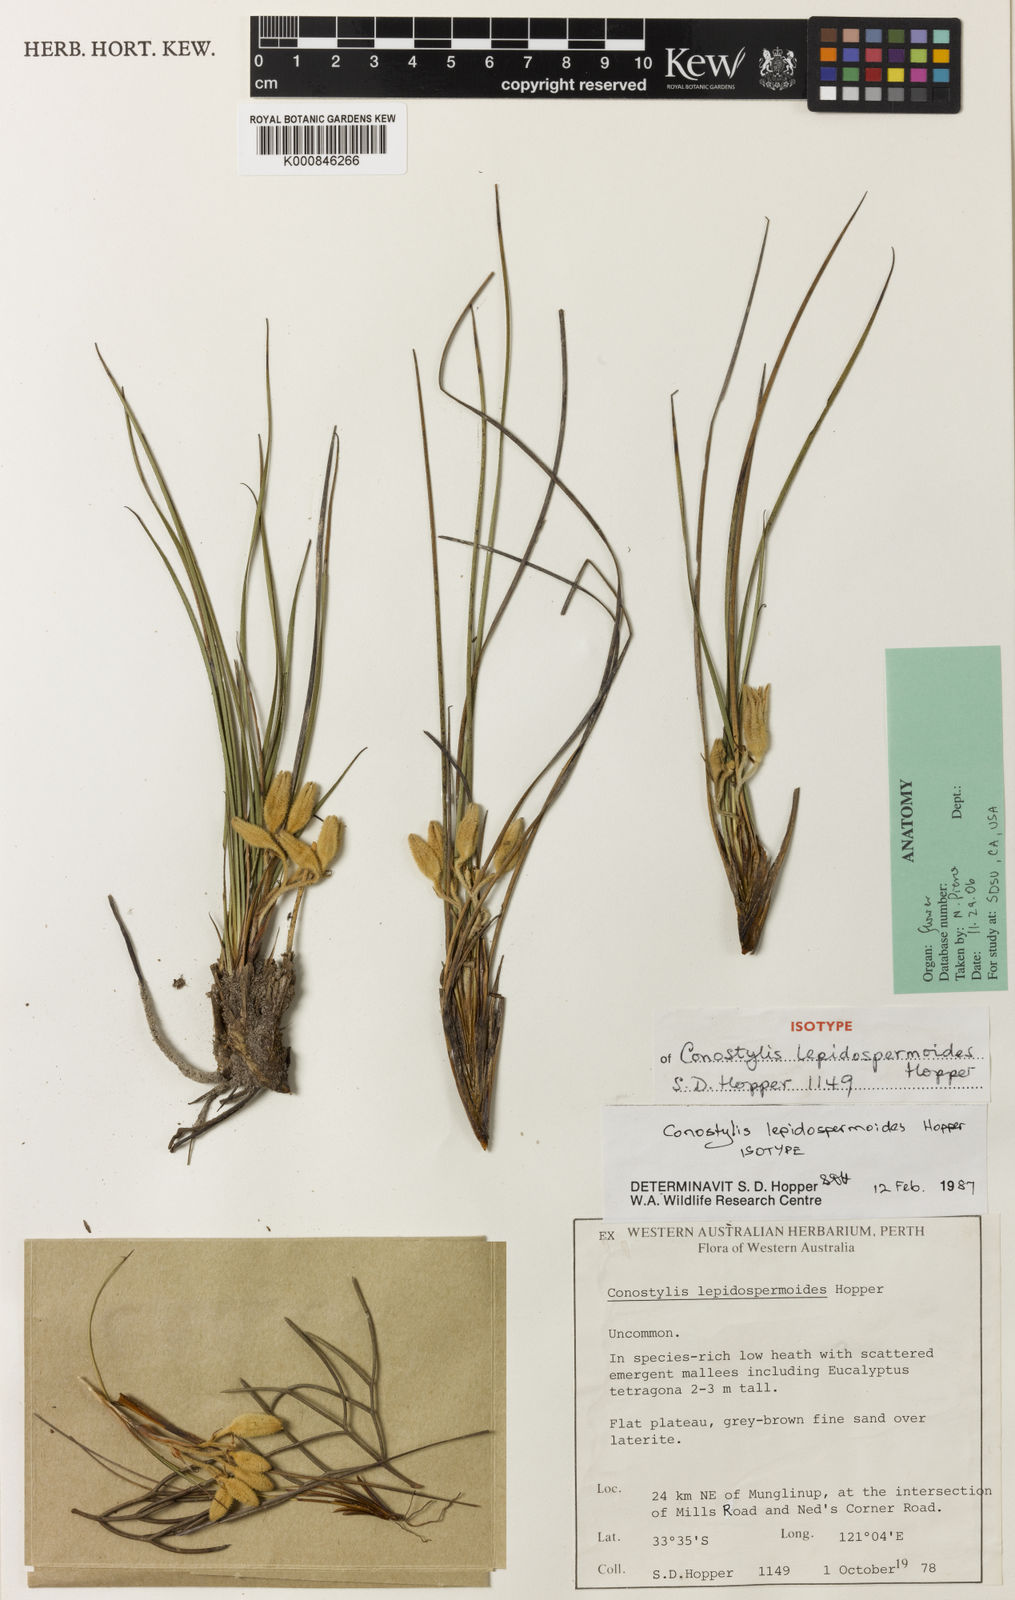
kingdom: Plantae
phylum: Tracheophyta
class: Liliopsida
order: Commelinales
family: Haemodoraceae
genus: Conostylis
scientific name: Conostylis lepidospermoides
